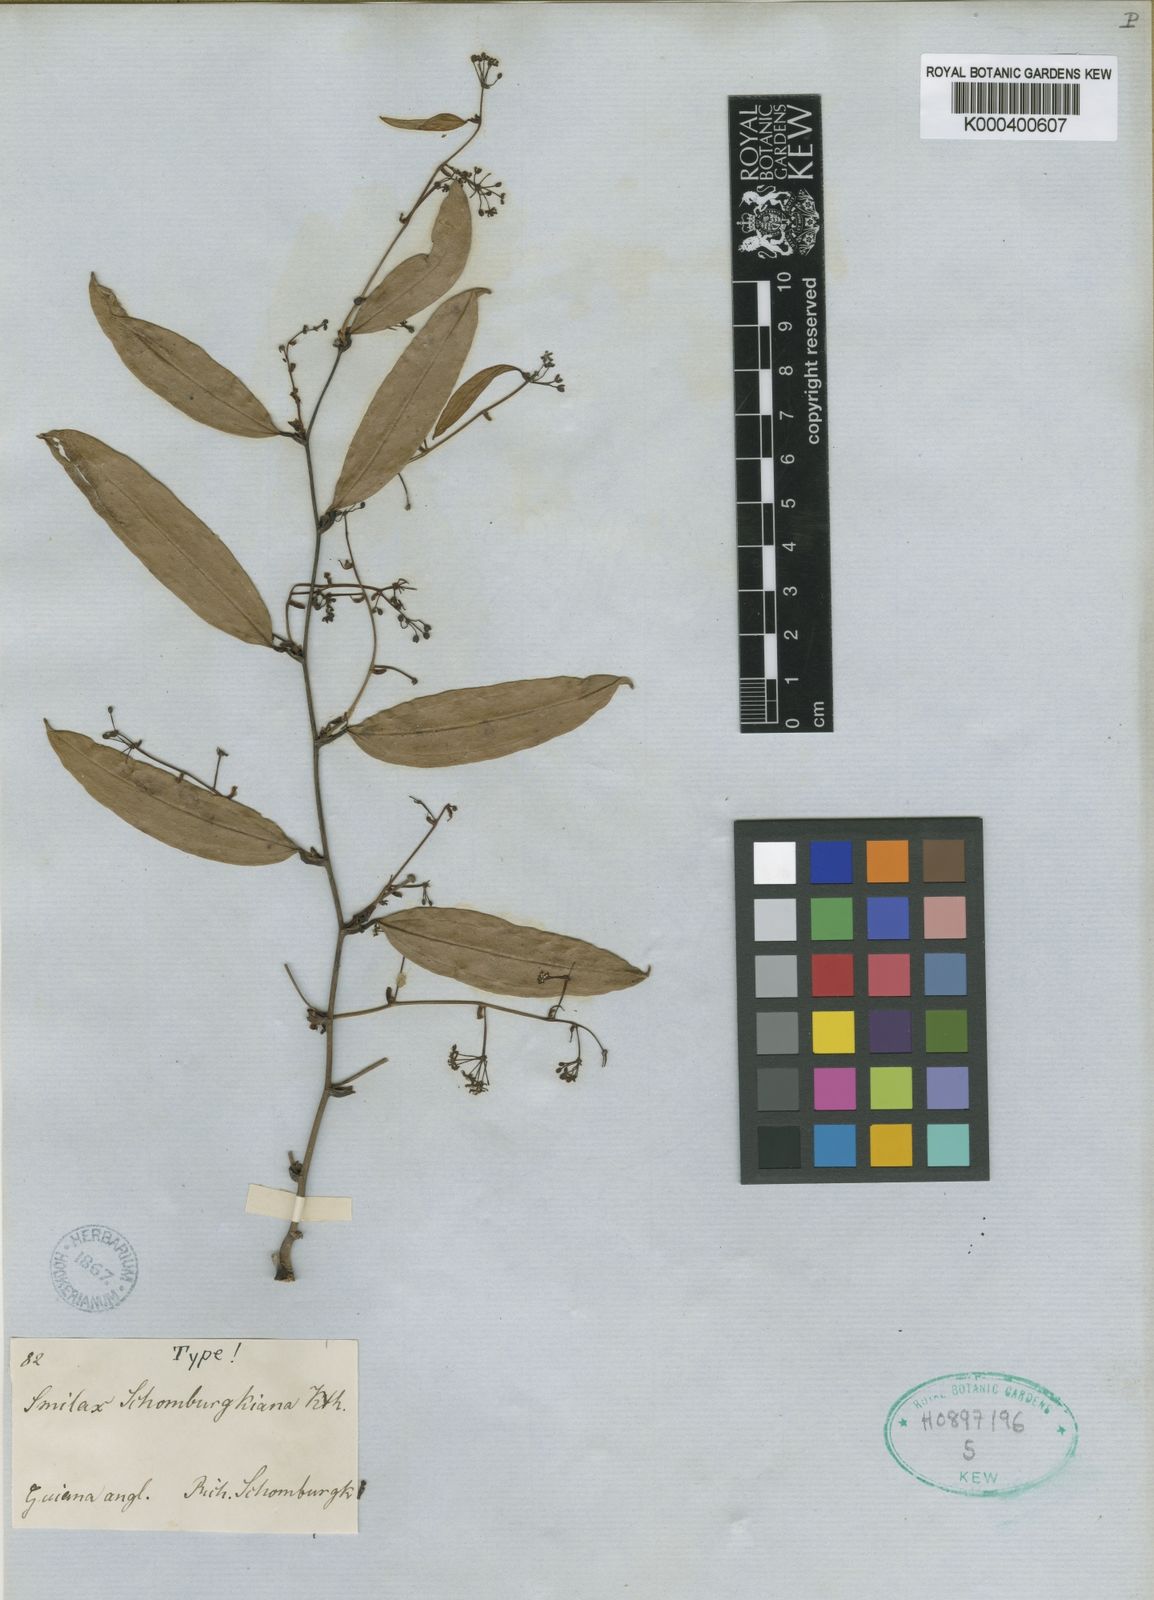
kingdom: Plantae
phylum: Tracheophyta
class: Liliopsida
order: Liliales
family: Smilacaceae
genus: Smilax
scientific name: Smilax schomburgkiana
